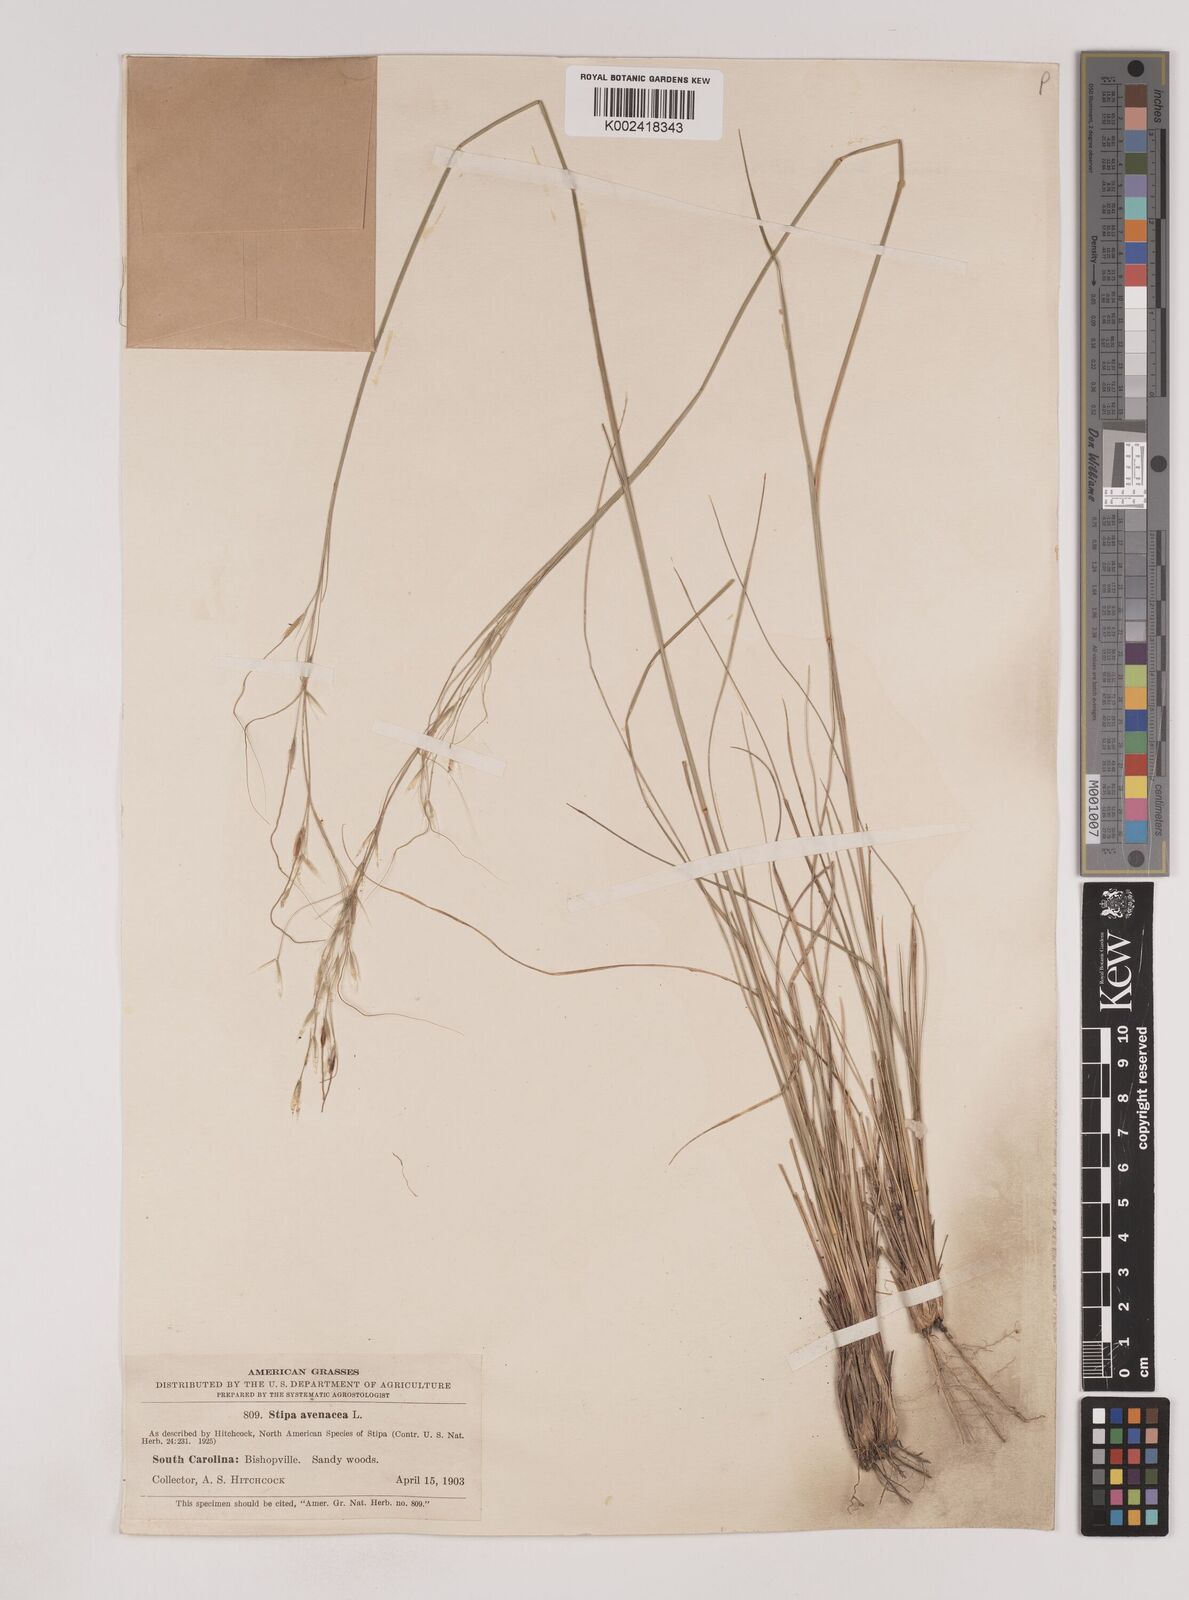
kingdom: Plantae
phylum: Tracheophyta
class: Liliopsida
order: Poales
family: Poaceae
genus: Piptochaetium
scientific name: Piptochaetium avenaceum
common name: Black bunchgrass
